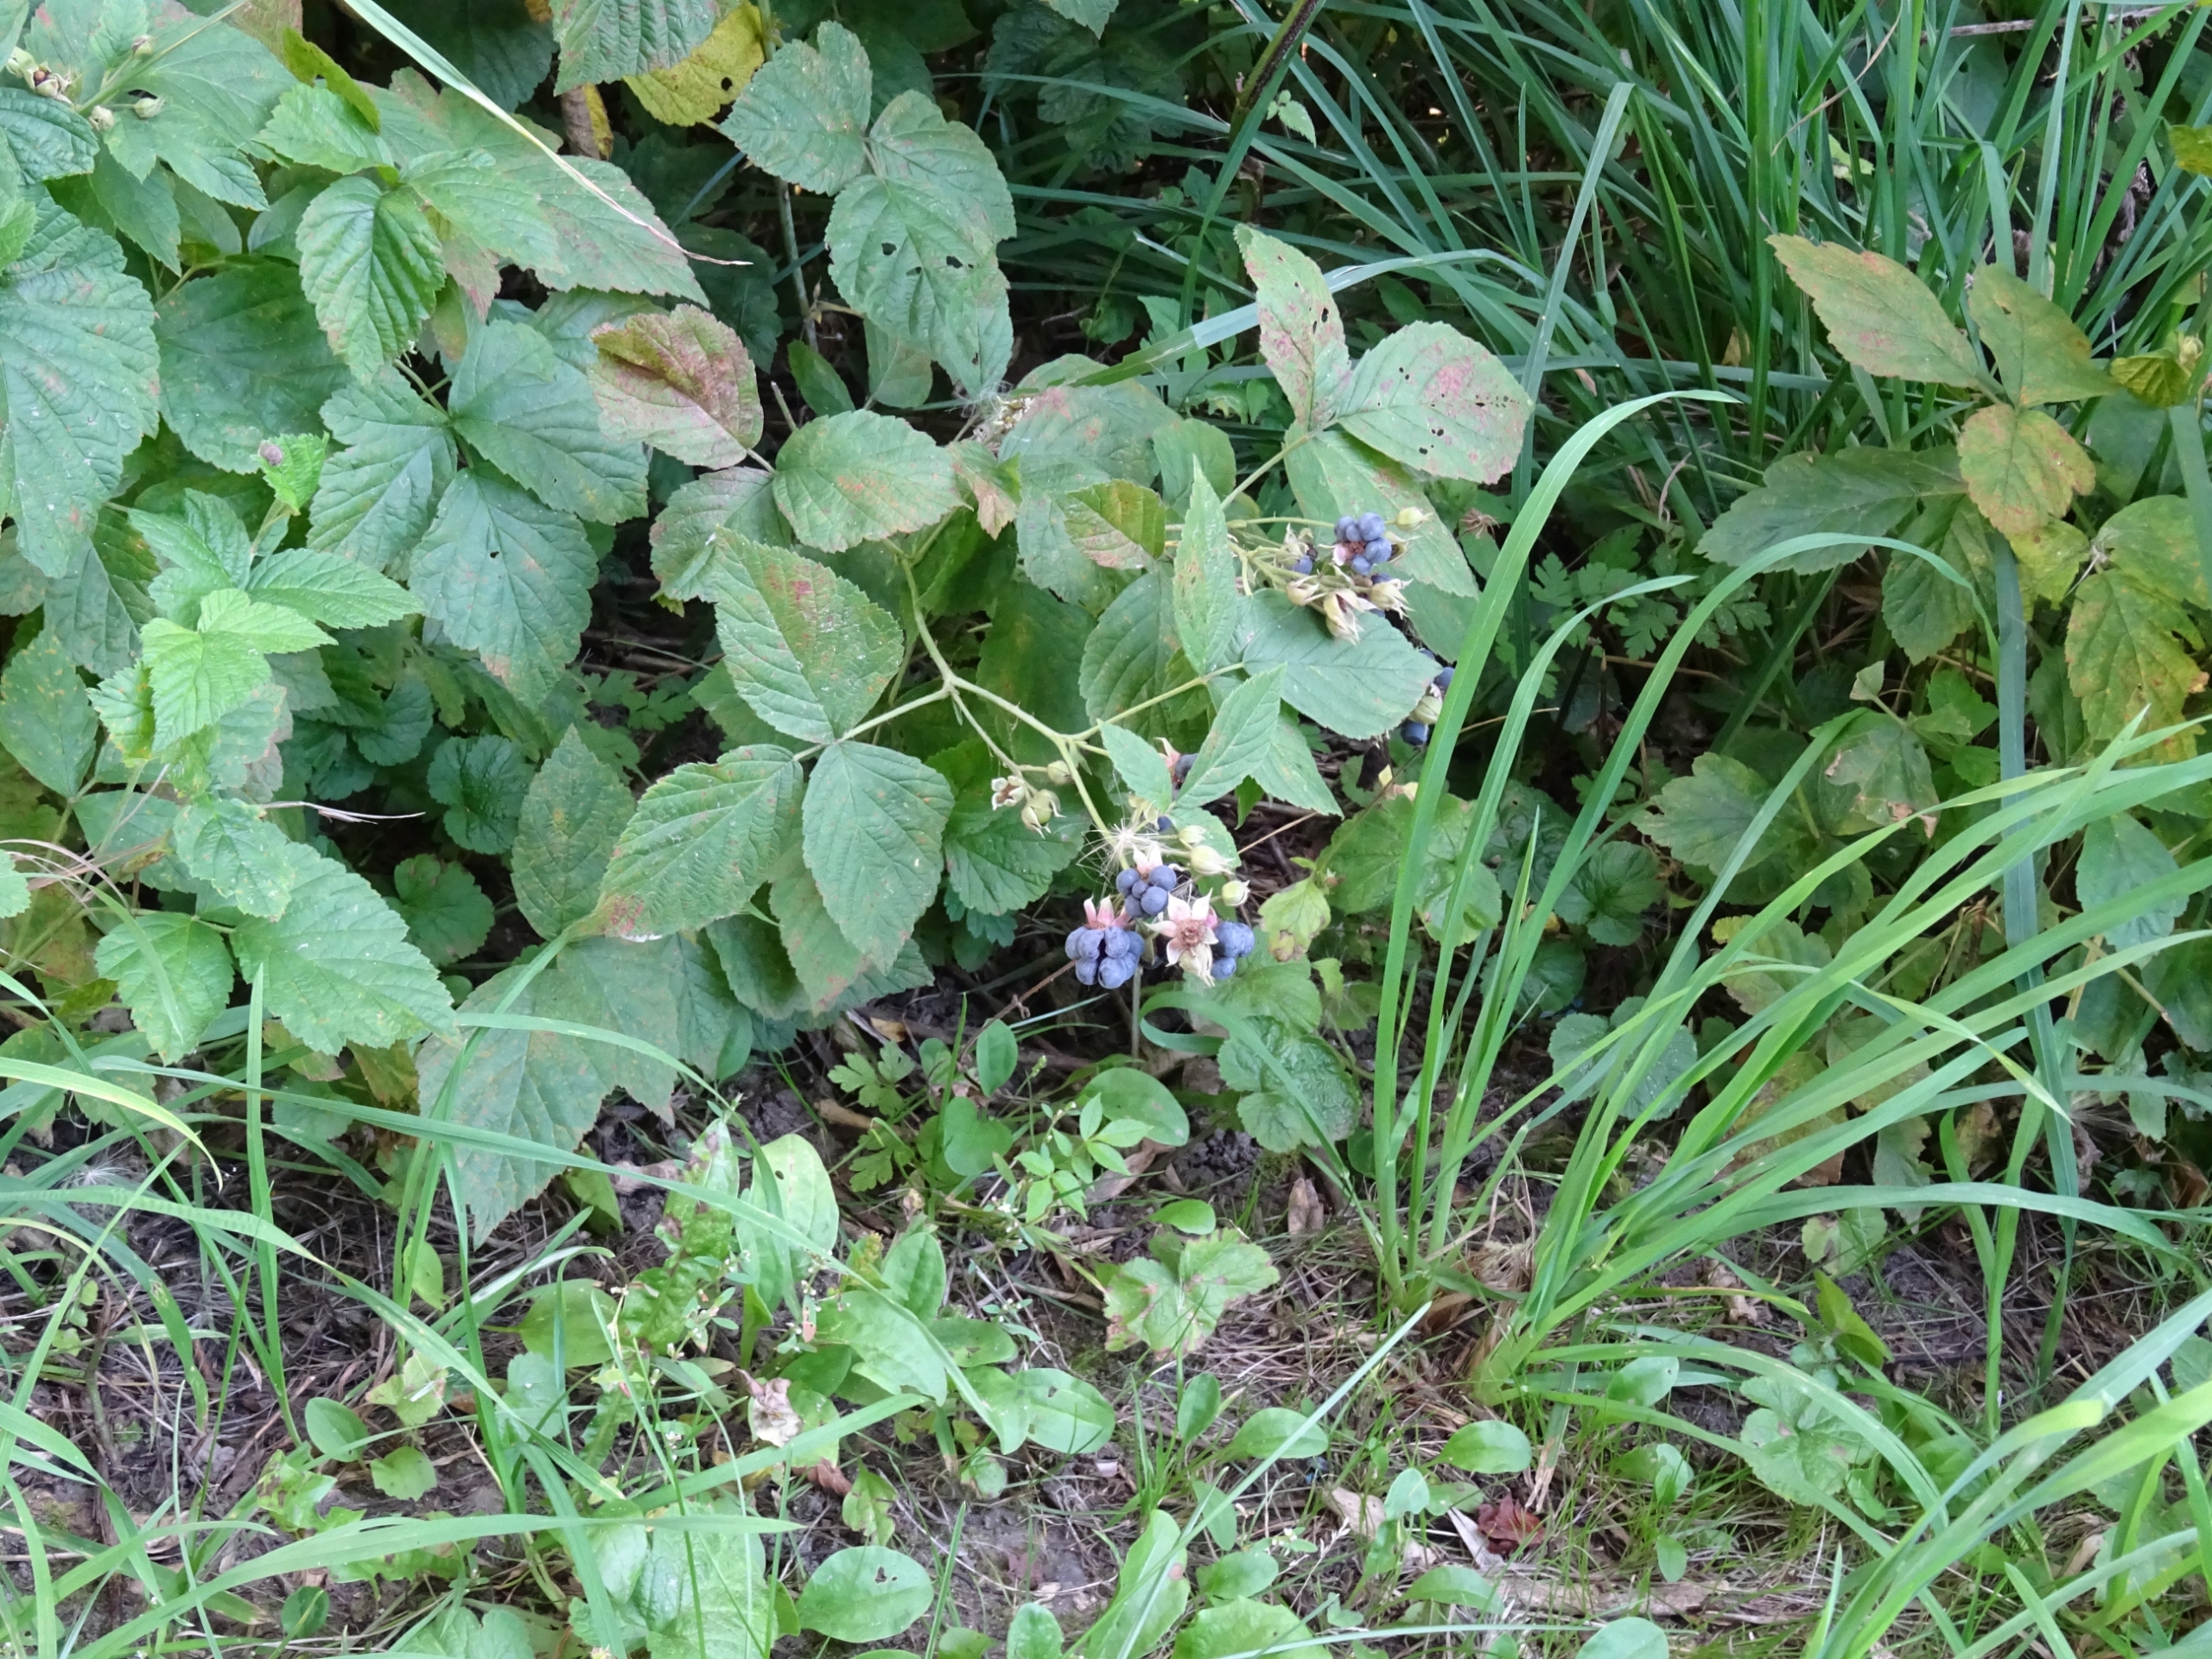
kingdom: Plantae
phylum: Tracheophyta
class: Magnoliopsida
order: Rosales
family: Rosaceae
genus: Rubus
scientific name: Rubus caesius
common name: Korbær
